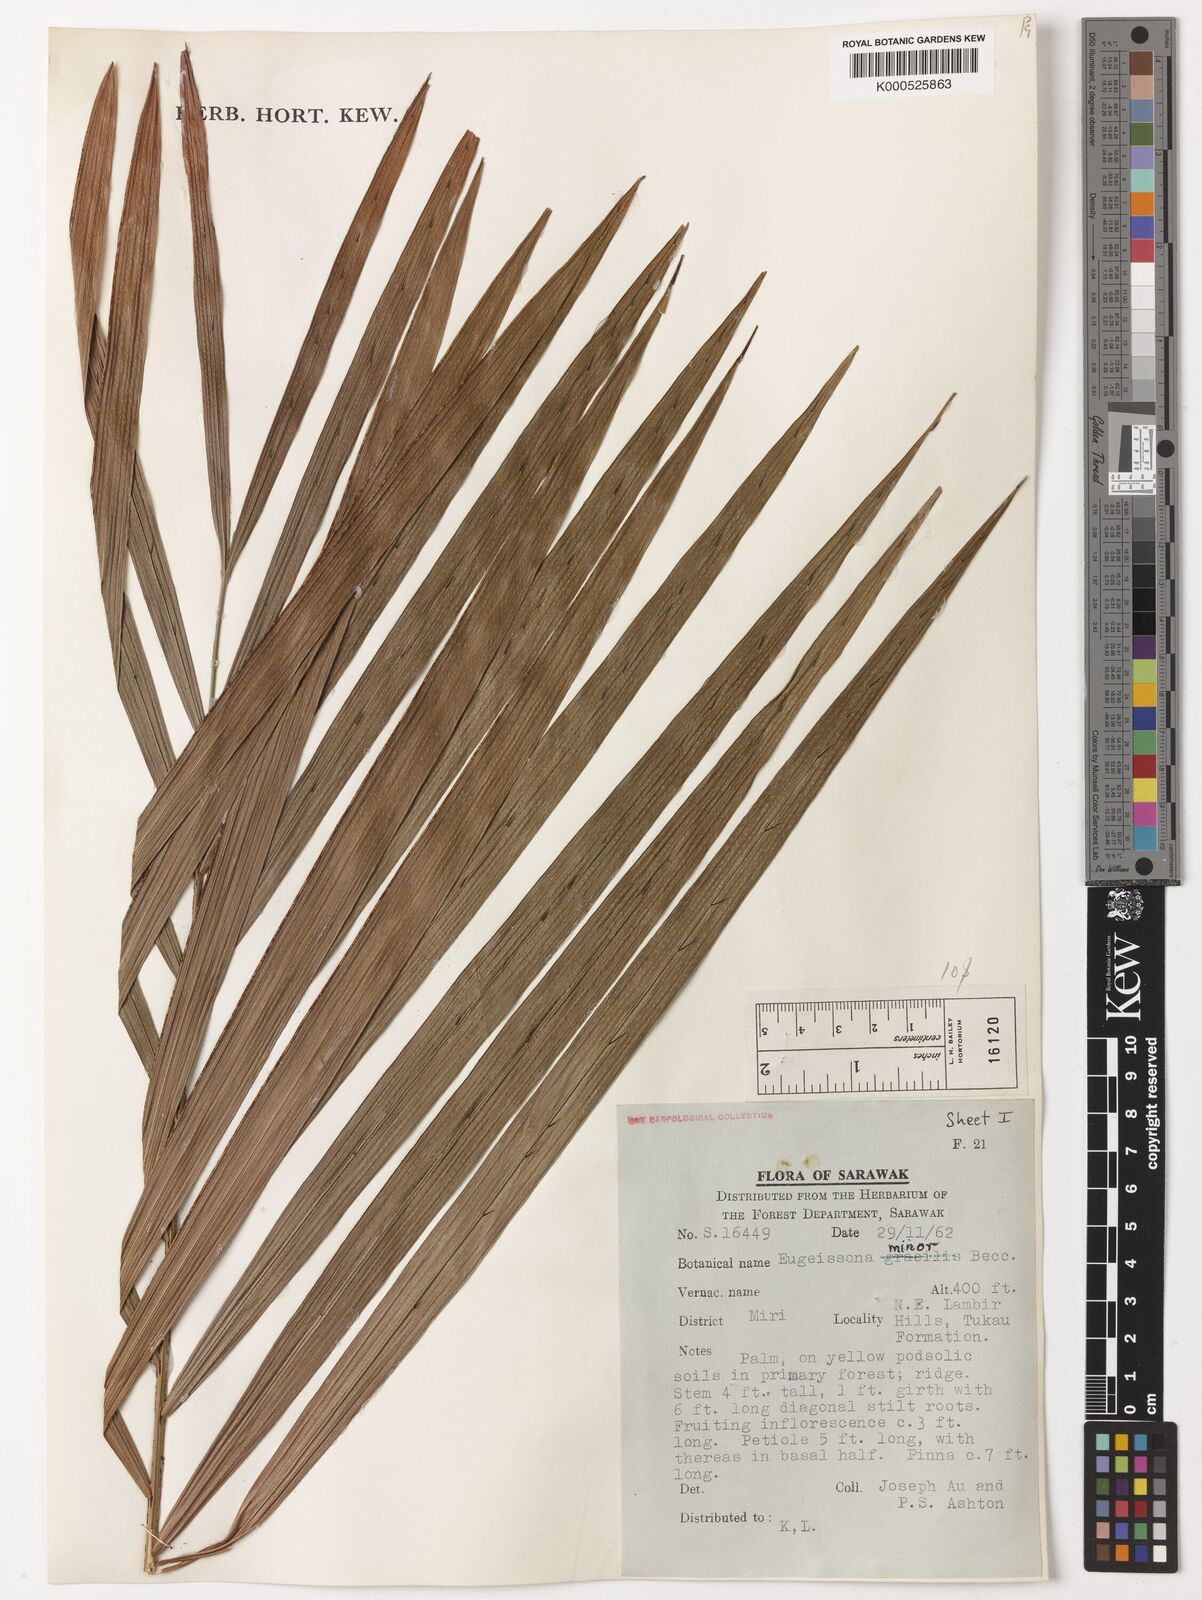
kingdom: Plantae
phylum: Tracheophyta
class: Liliopsida
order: Arecales
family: Arecaceae
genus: Eugeissona
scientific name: Eugeissona minor
